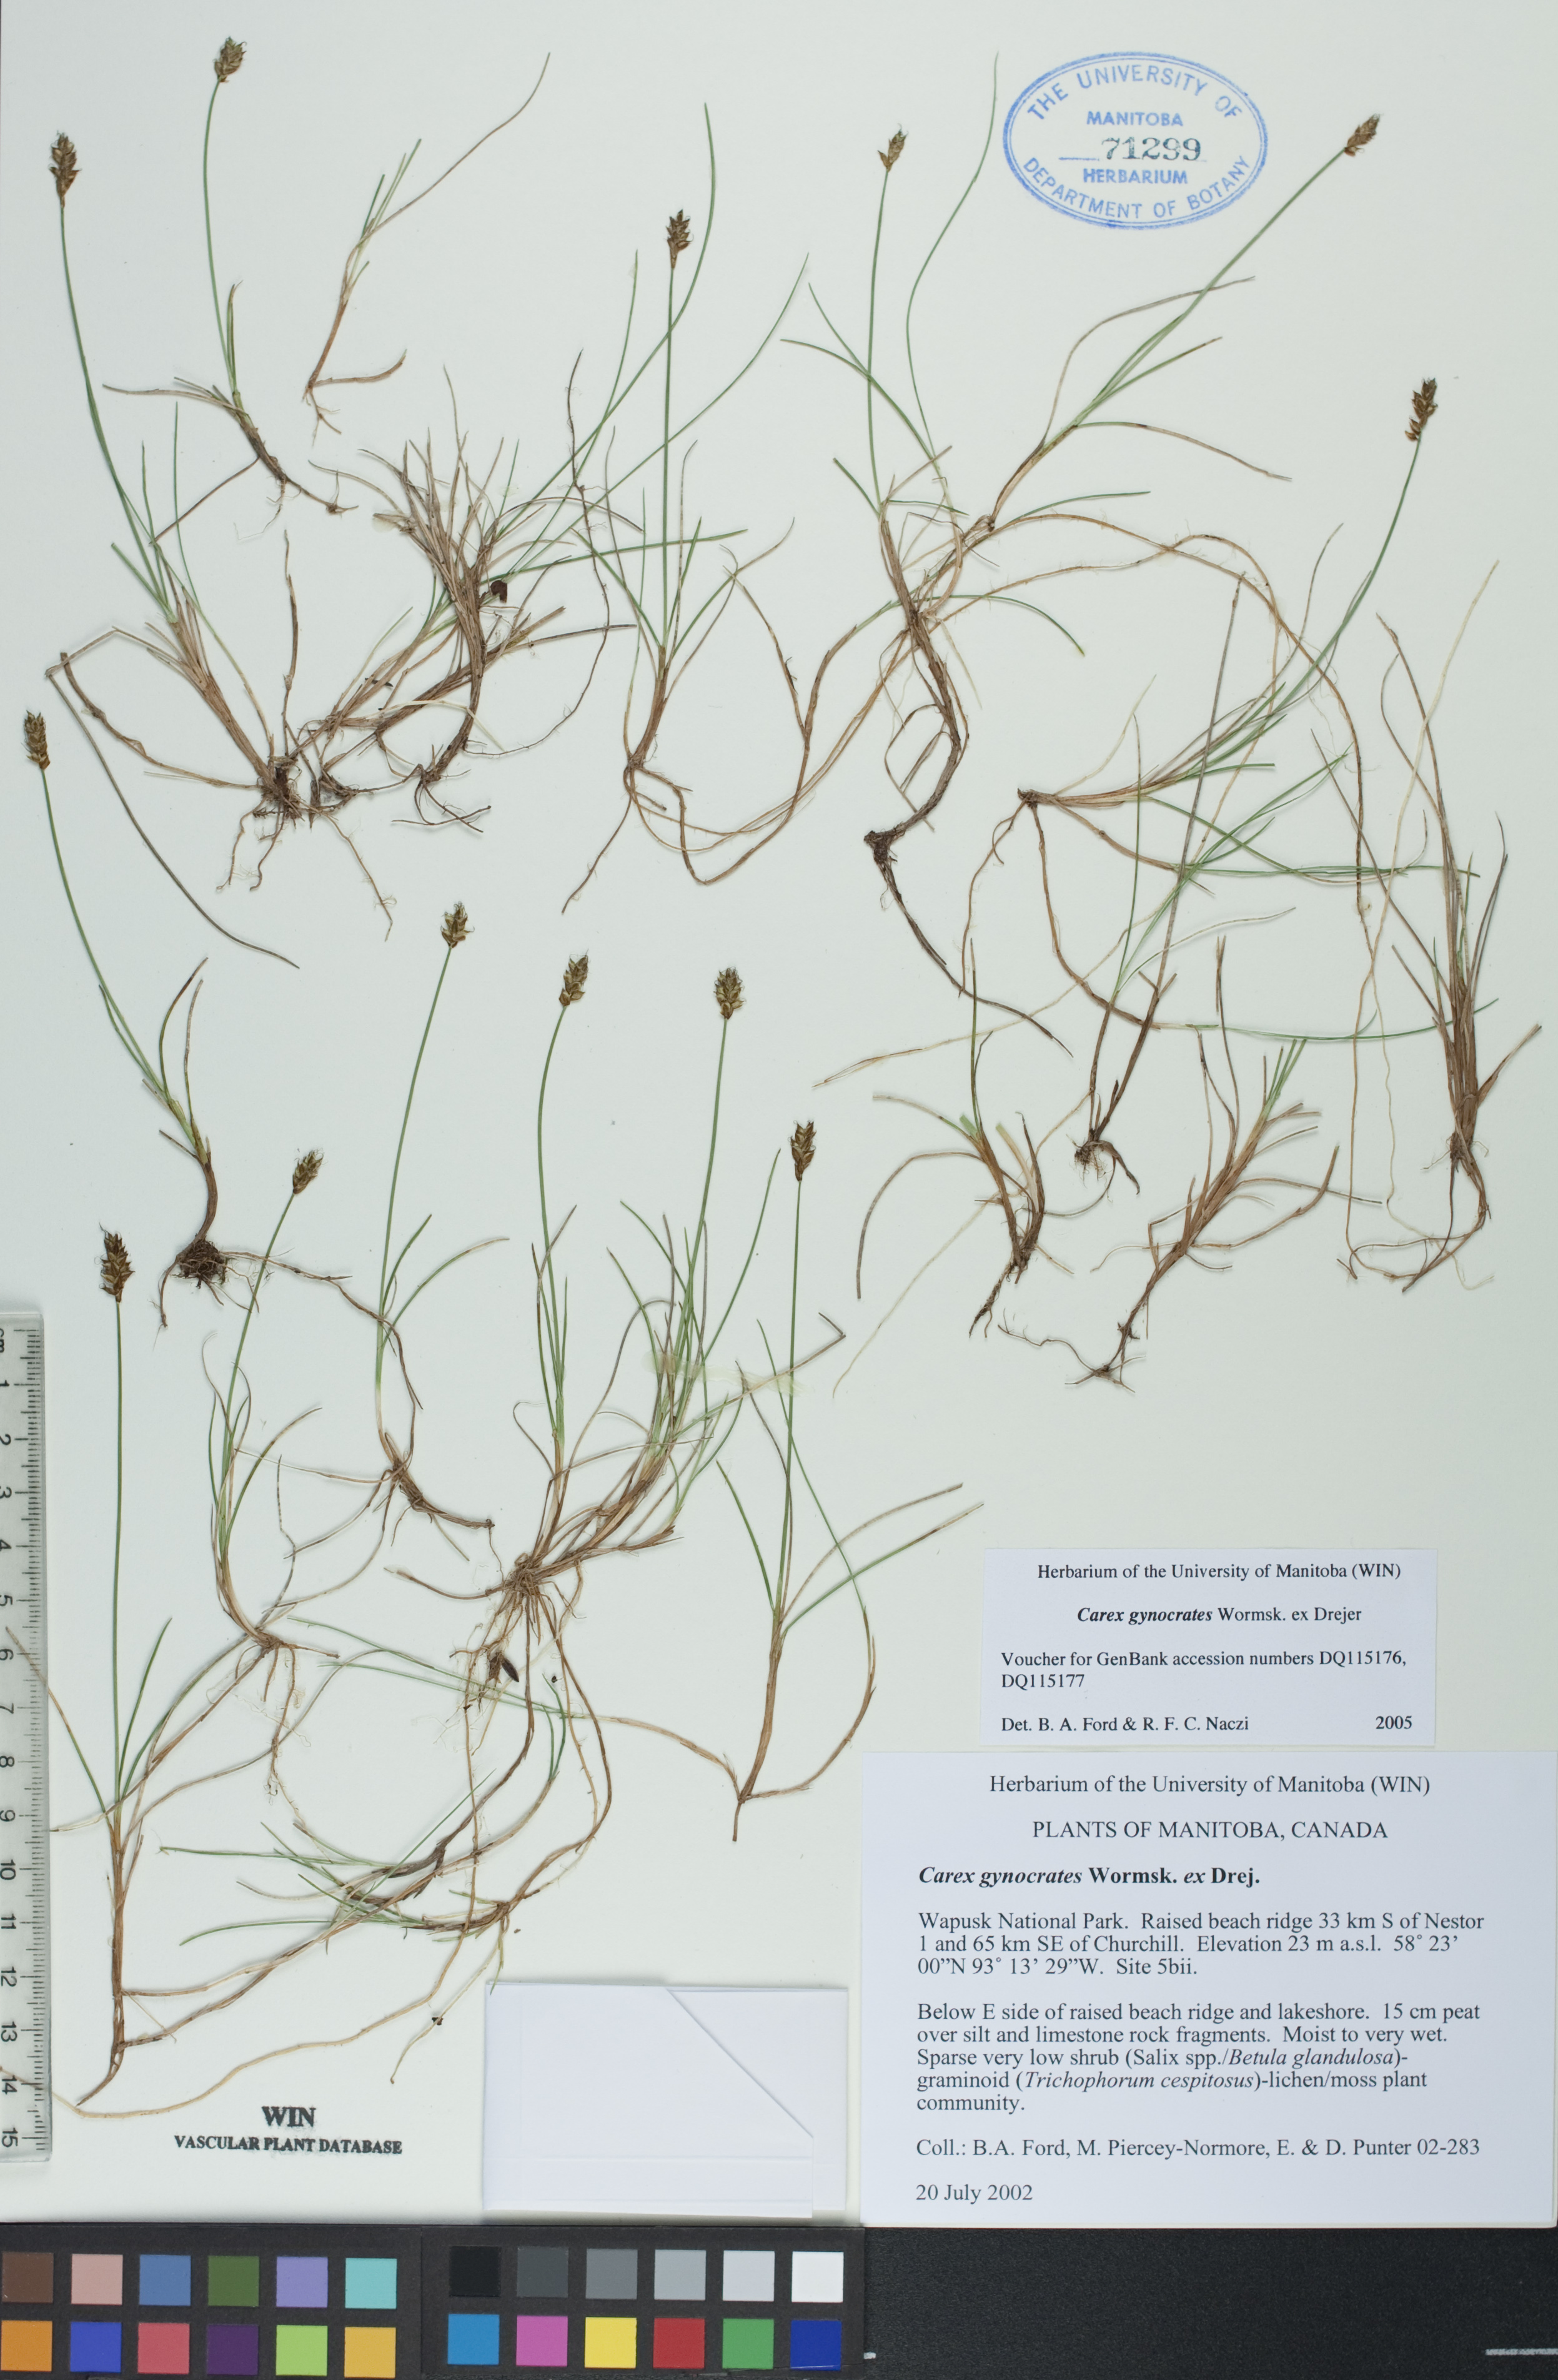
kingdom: Plantae
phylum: Tracheophyta
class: Liliopsida
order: Poales
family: Cyperaceae
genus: Carex
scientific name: Carex nardina
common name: Nard sedge
